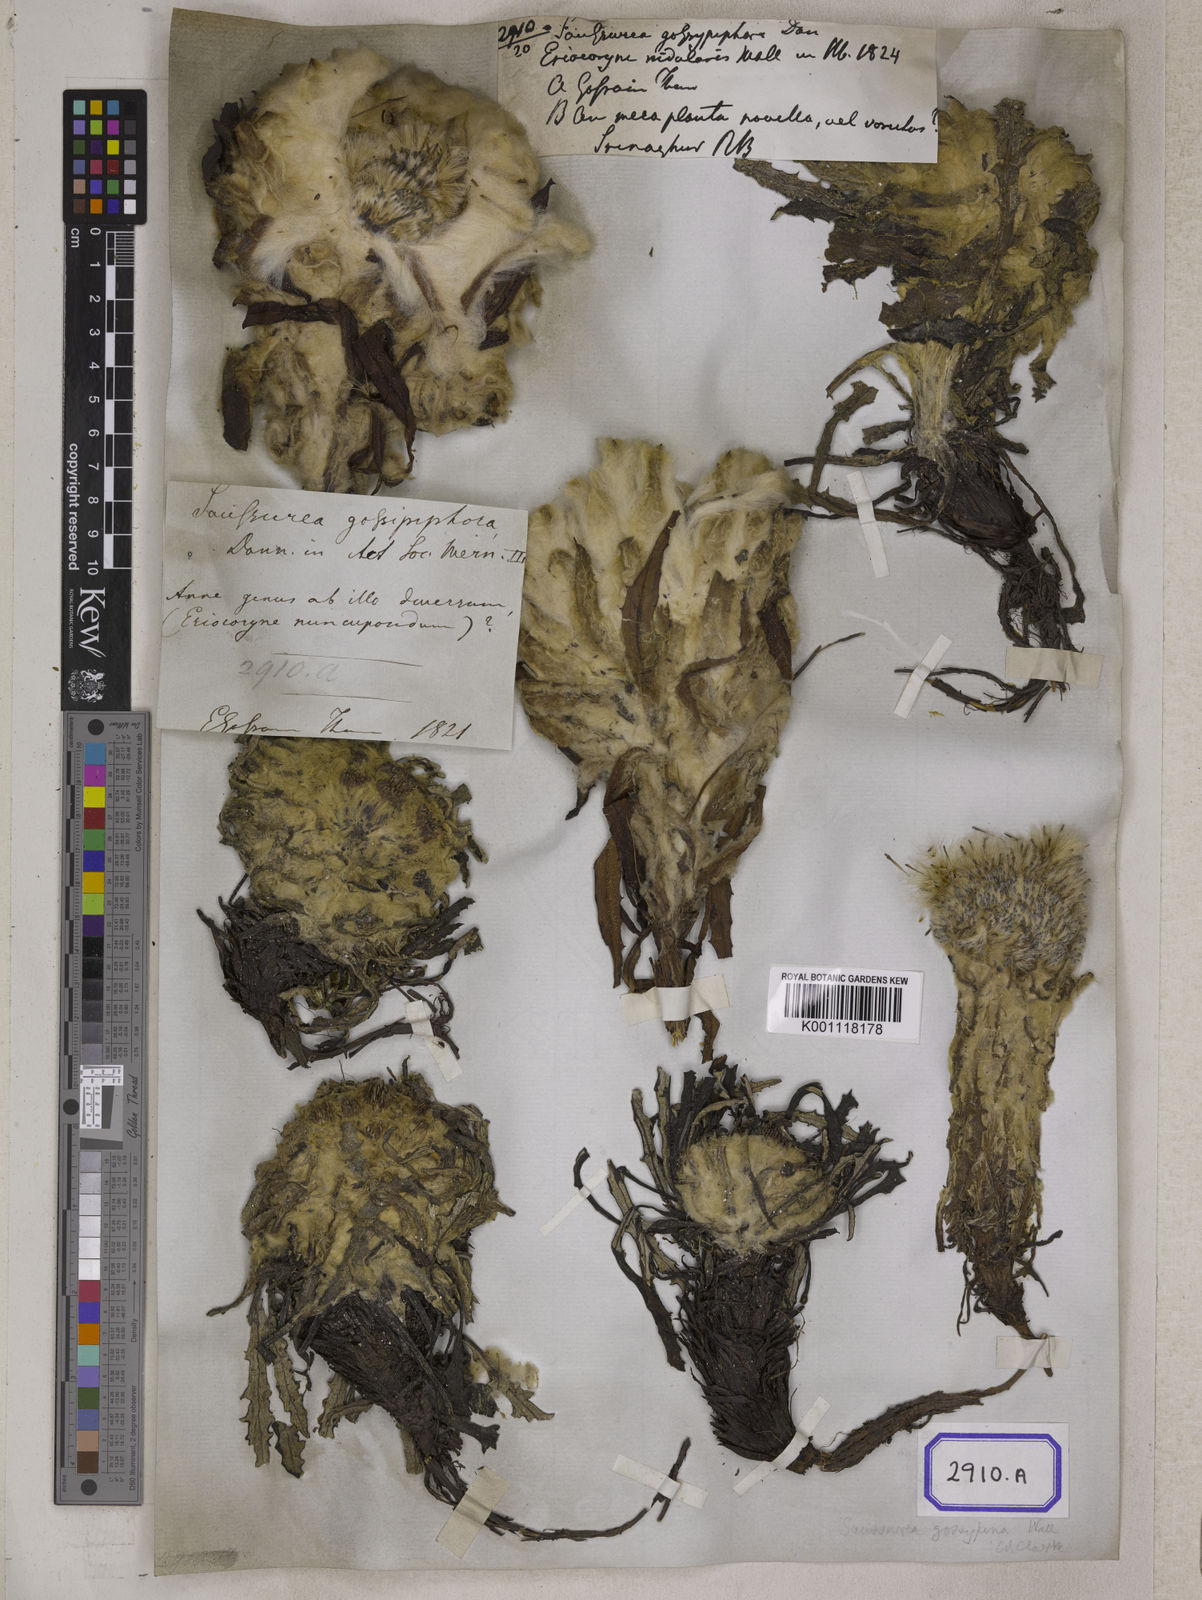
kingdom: Plantae
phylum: Tracheophyta
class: Magnoliopsida
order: Asterales
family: Asteraceae
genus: Saussurea
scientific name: Saussurea laniceps
